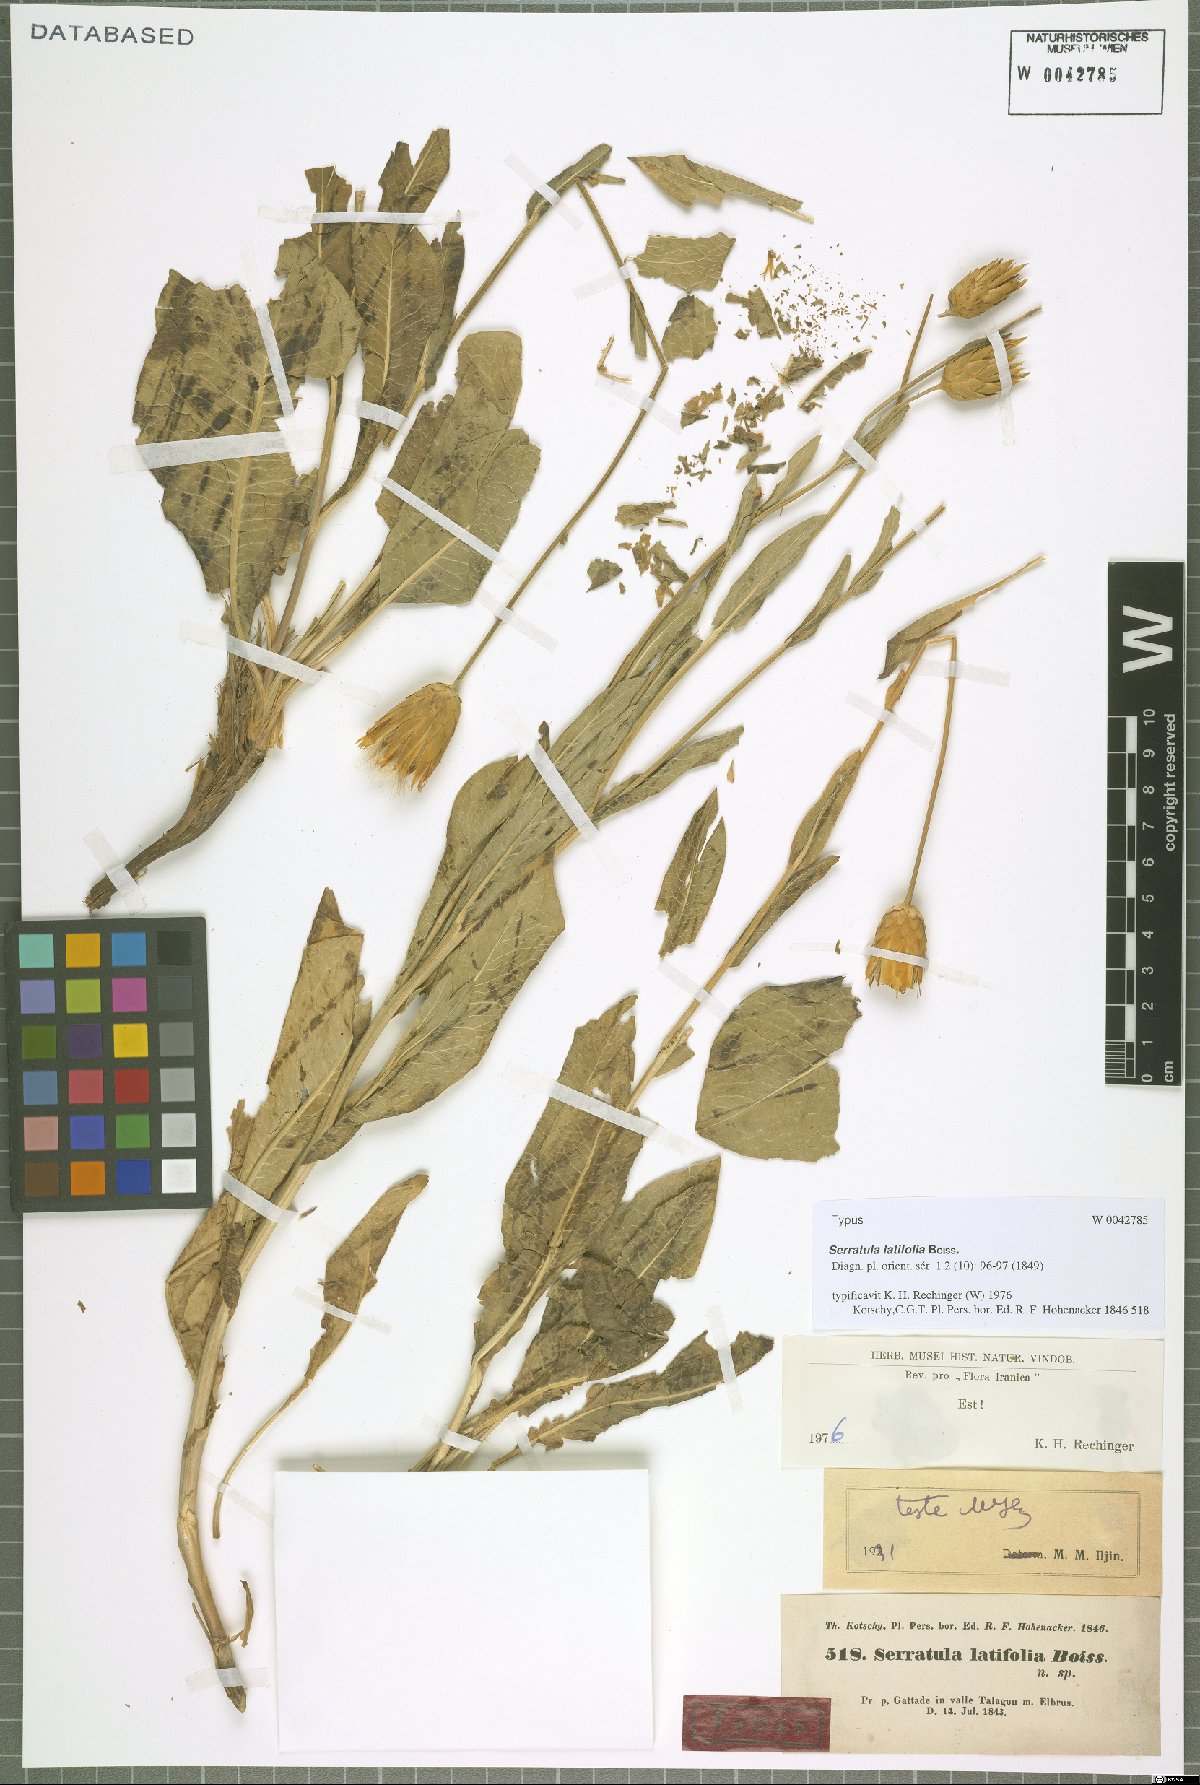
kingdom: Plantae
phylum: Tracheophyta
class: Magnoliopsida
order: Asterales
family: Asteraceae
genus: Klasea
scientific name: Klasea latifolia
